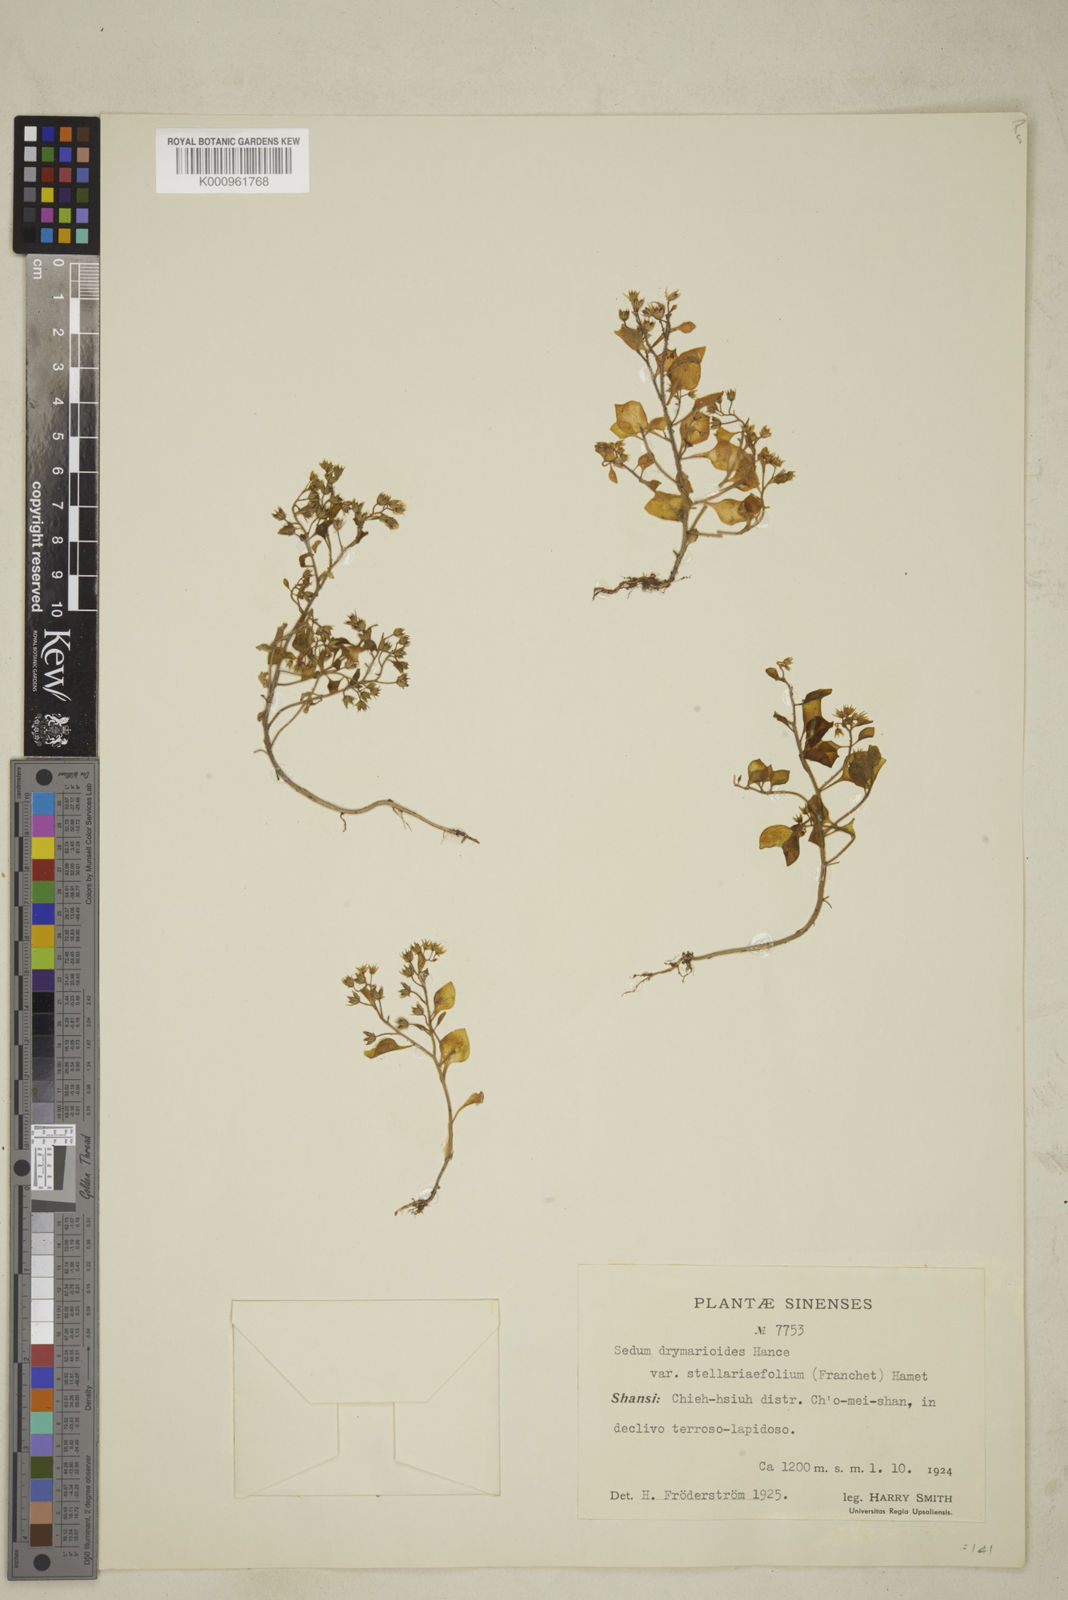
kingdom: Plantae
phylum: Tracheophyta
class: Magnoliopsida
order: Saxifragales
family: Crassulaceae
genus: Sedum
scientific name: Sedum drymarioides
